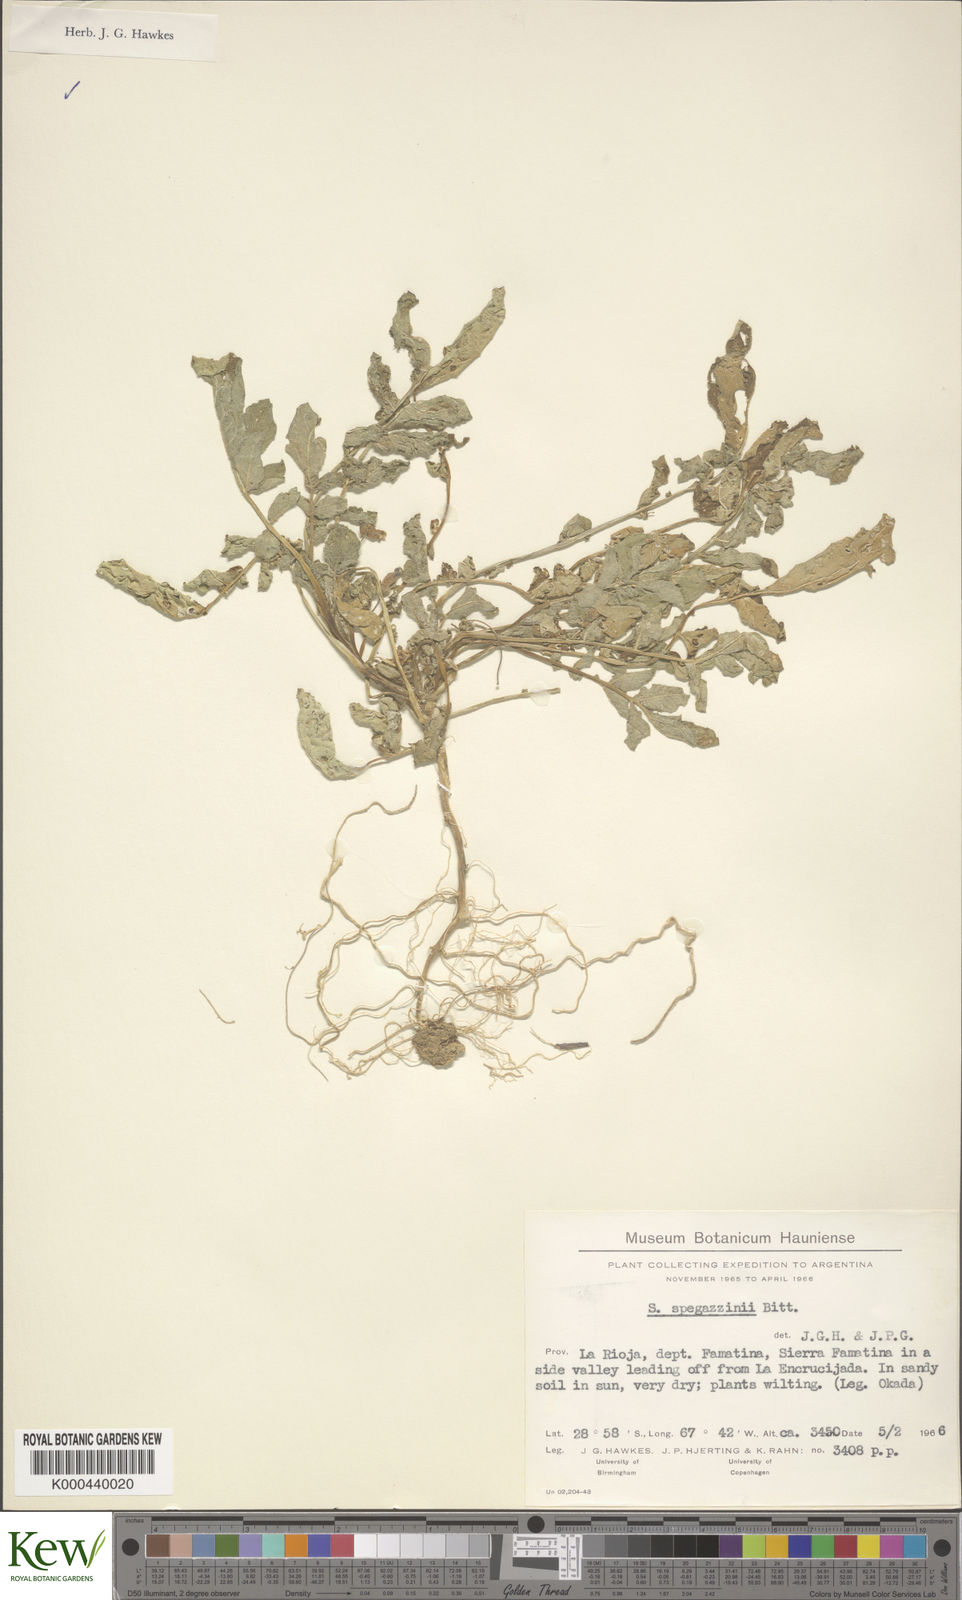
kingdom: Plantae
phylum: Tracheophyta
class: Magnoliopsida
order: Solanales
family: Solanaceae
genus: Solanum
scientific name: Solanum brevicaule
